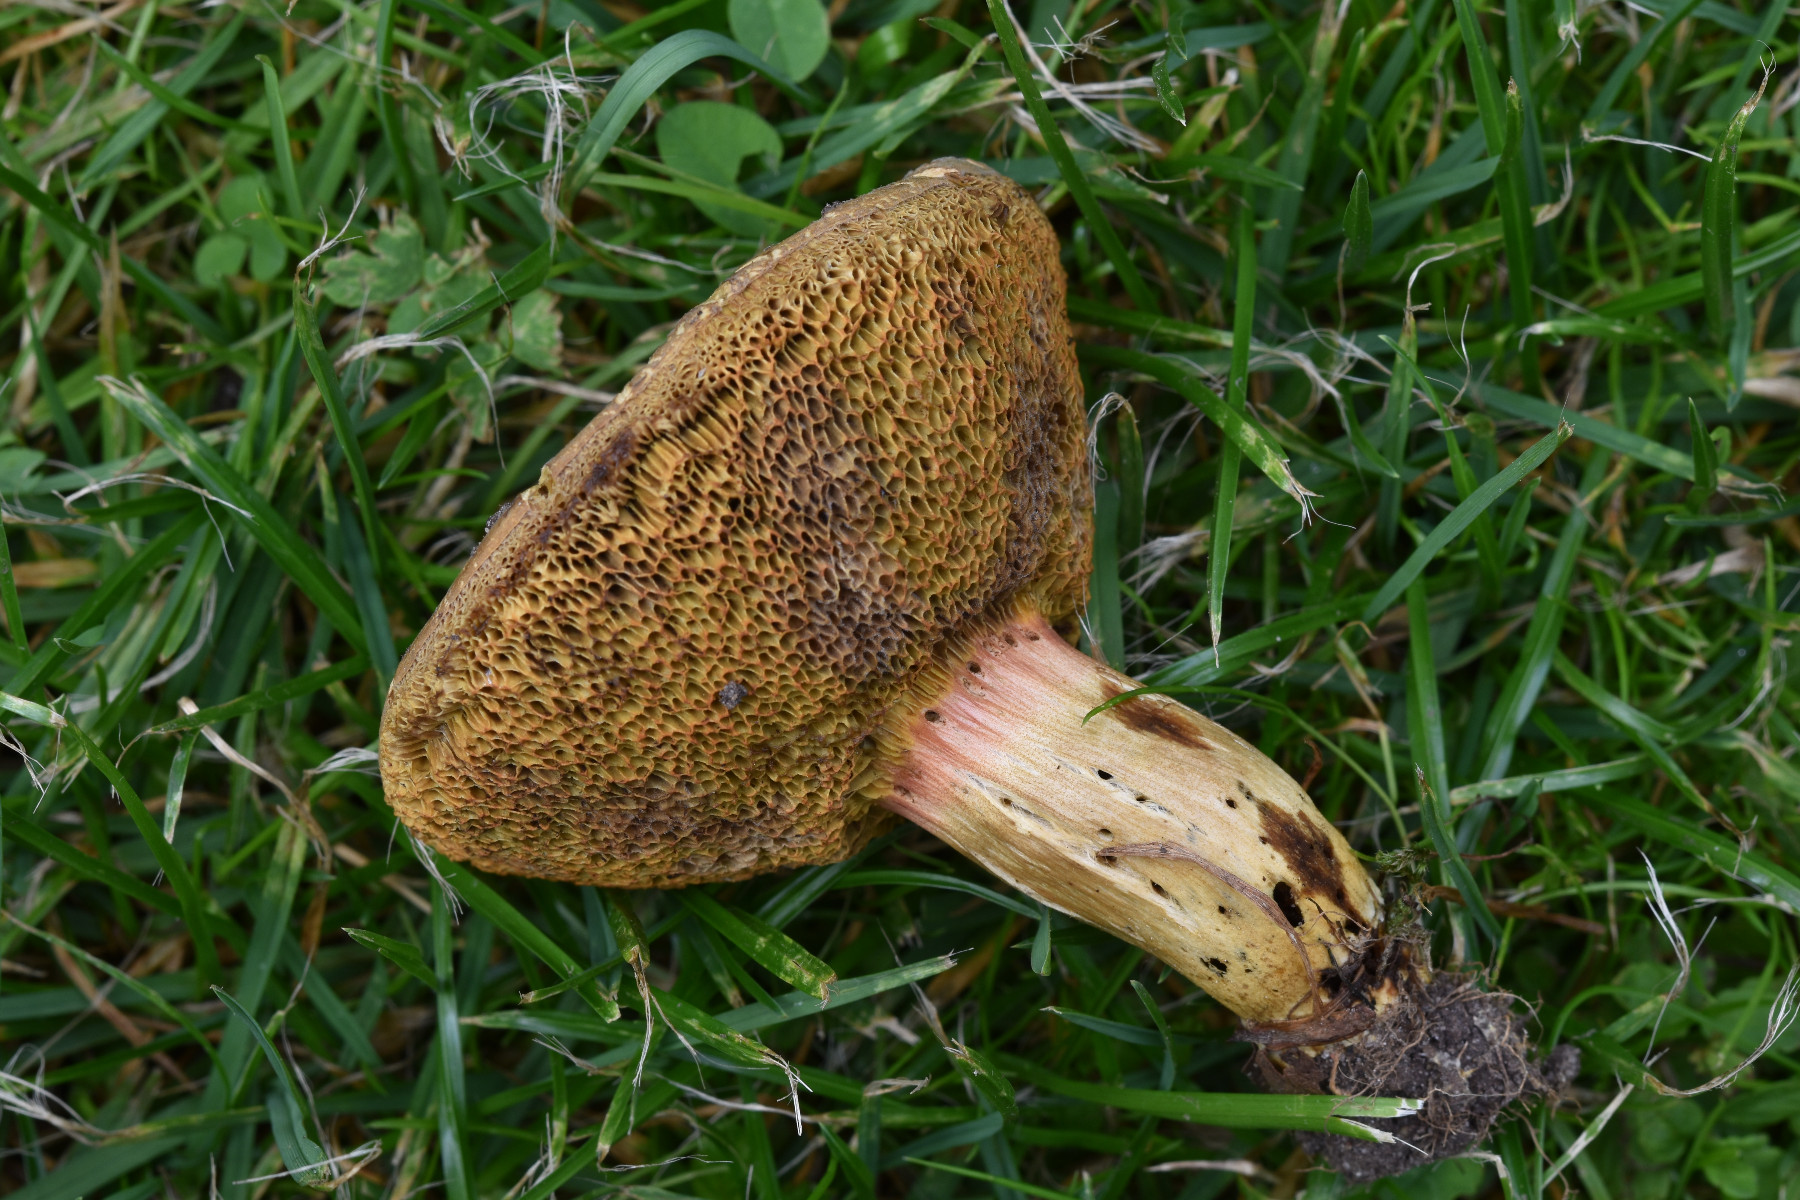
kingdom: Fungi
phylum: Basidiomycota
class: Agaricomycetes
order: Boletales
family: Boletaceae
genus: Xerocomellus
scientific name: Xerocomellus porosporus
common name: hvidsprukken rørhat
